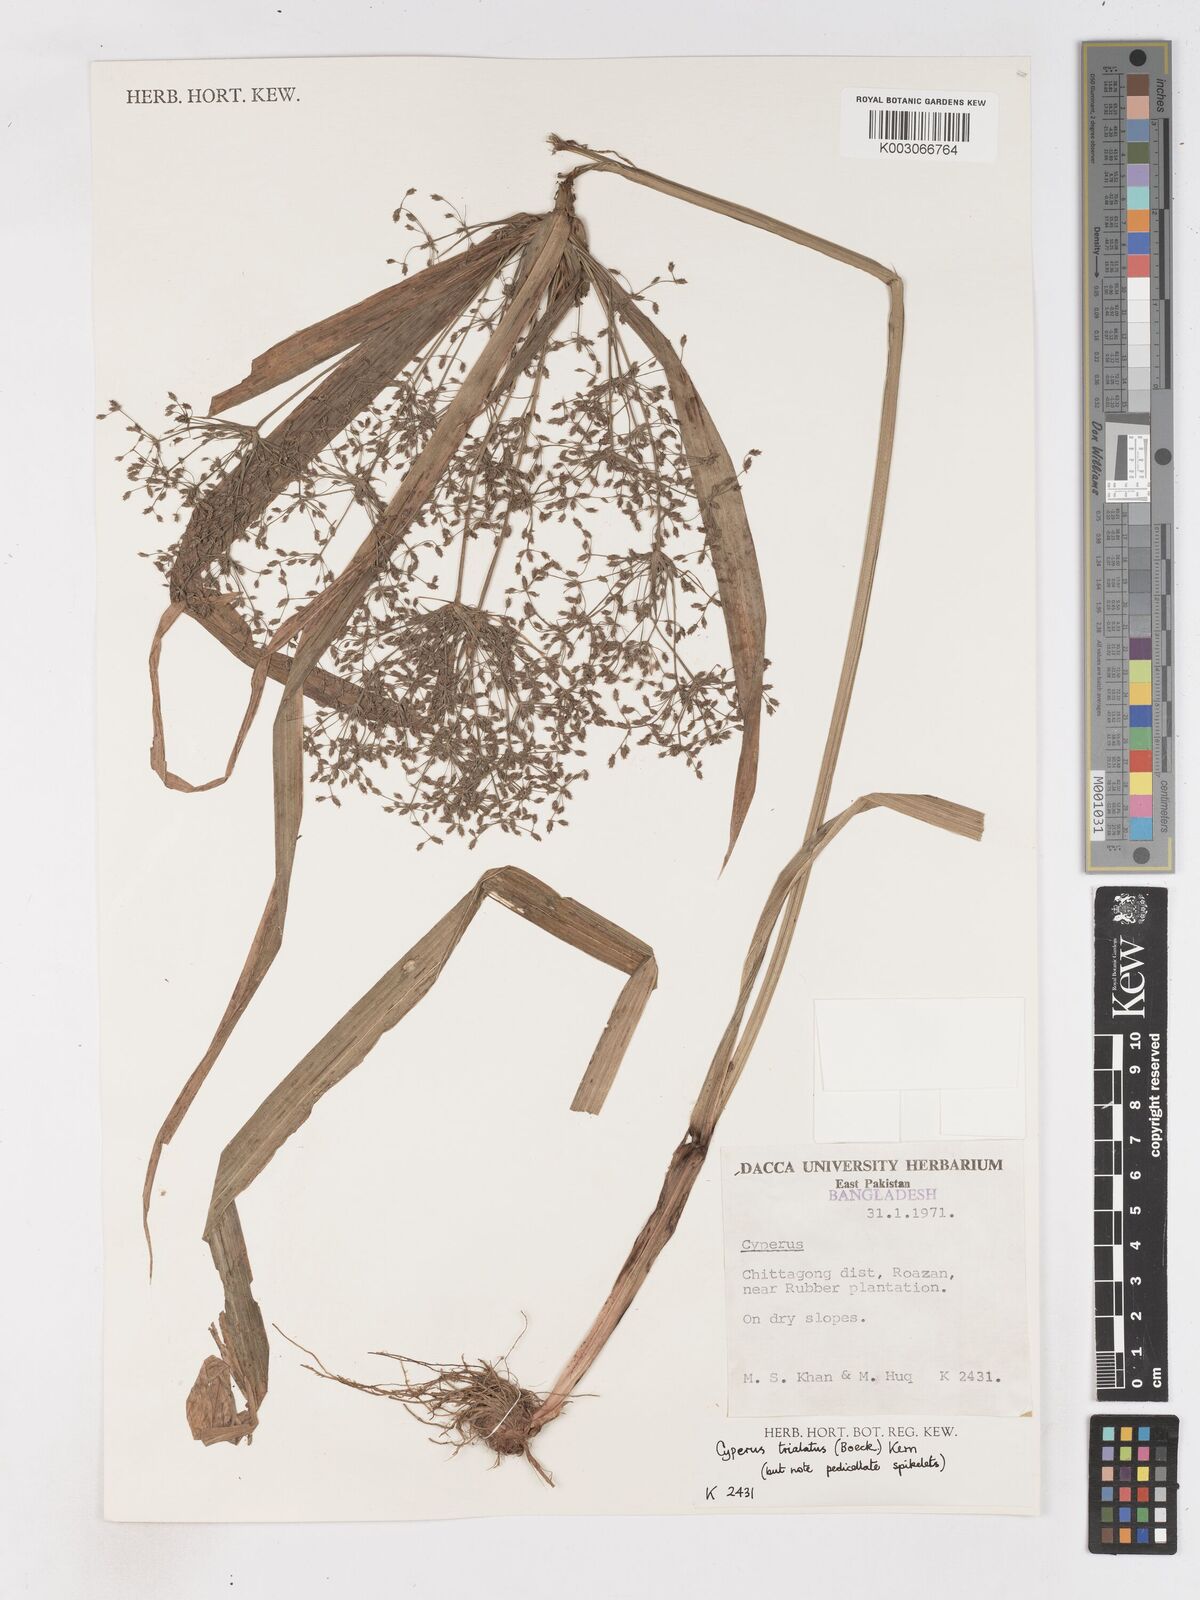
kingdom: Plantae
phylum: Tracheophyta
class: Liliopsida
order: Poales
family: Cyperaceae
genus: Cyperus
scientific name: Cyperus trialatus
